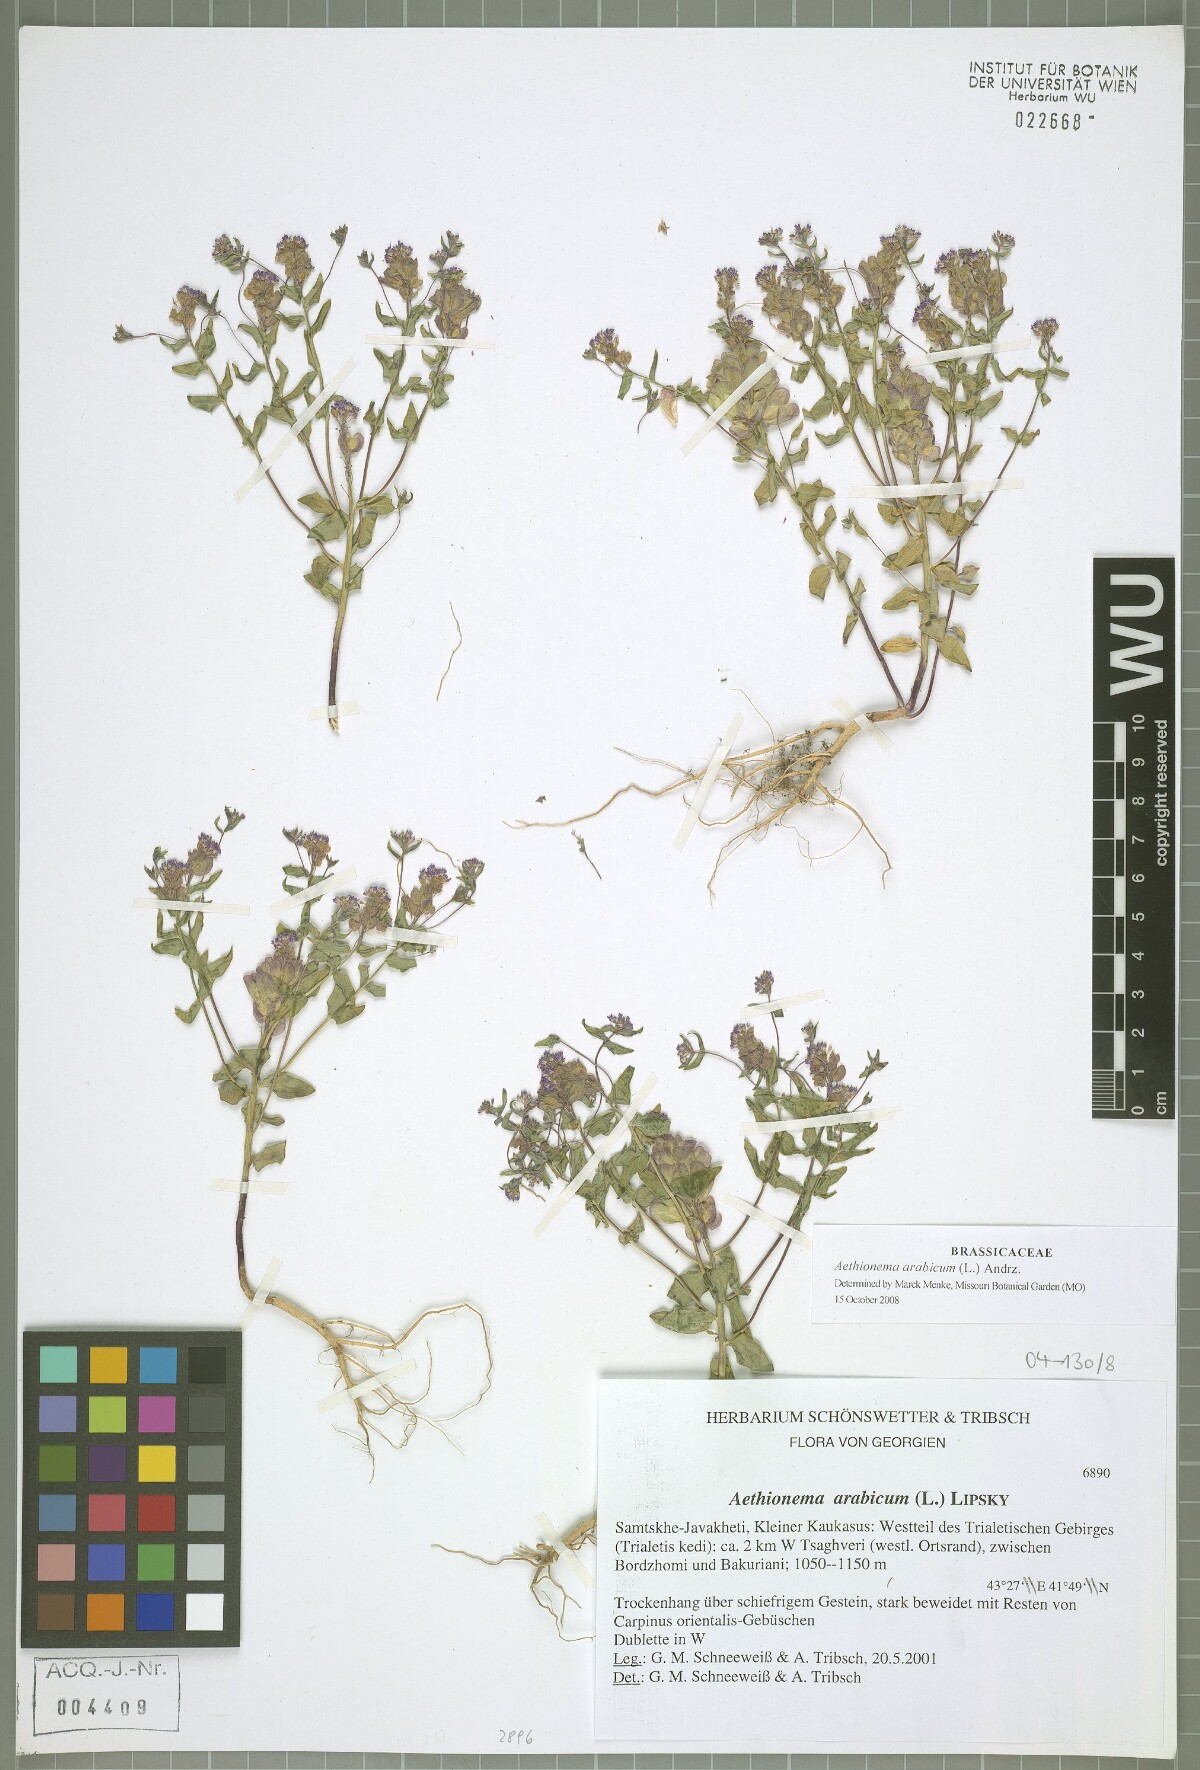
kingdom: Plantae
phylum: Tracheophyta
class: Magnoliopsida
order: Brassicales
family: Brassicaceae
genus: Aethionema
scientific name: Aethionema arabicum
